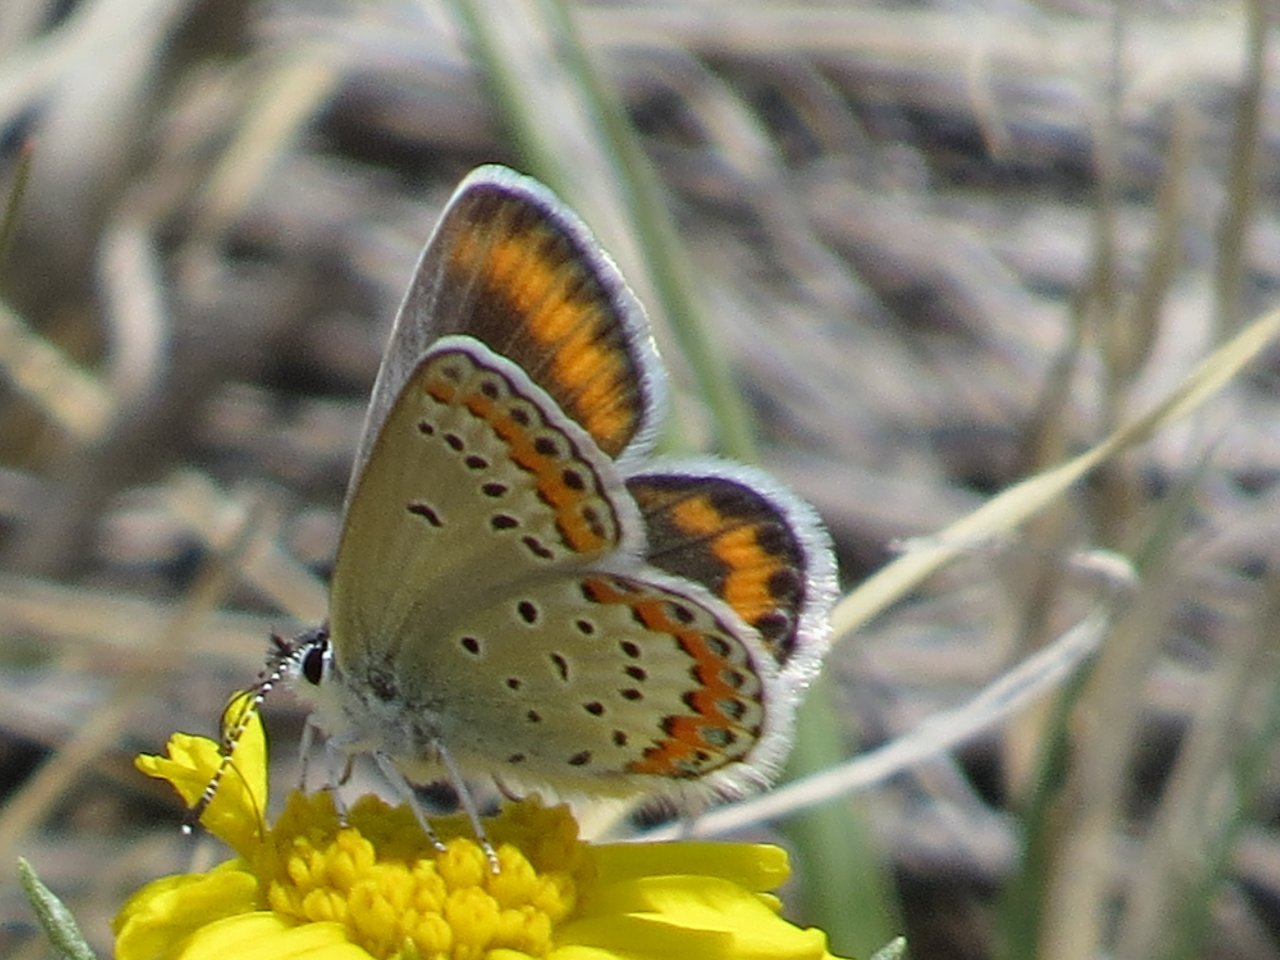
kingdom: Animalia
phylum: Arthropoda
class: Insecta
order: Lepidoptera
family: Lycaenidae
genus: Lycaeides
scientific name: Lycaeides melissa
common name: Melissa Blue
